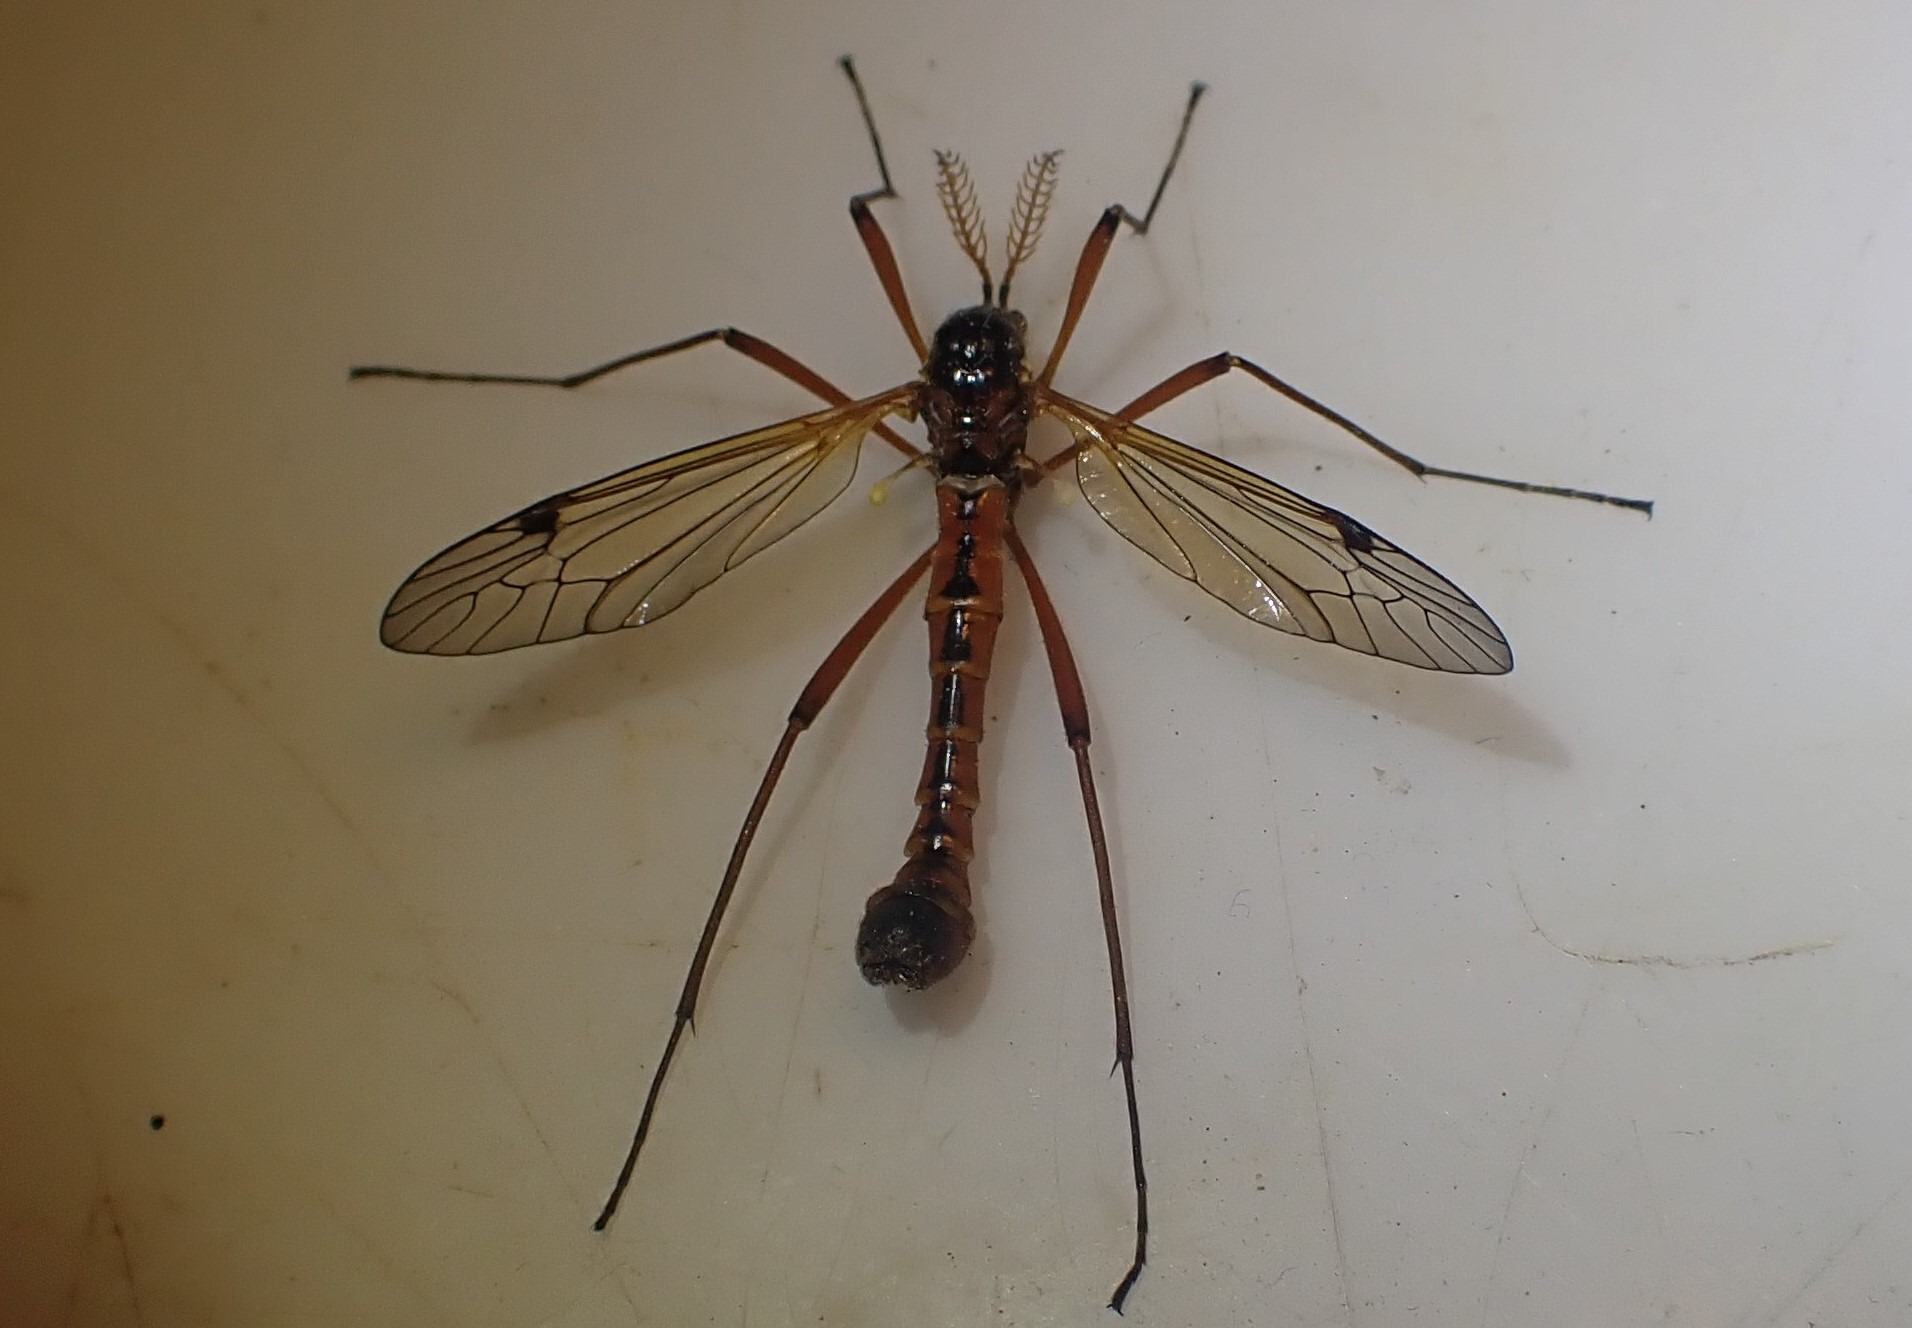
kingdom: Animalia
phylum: Arthropoda
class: Insecta
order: Diptera
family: Tipulidae
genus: Tanyptera
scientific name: Tanyptera atrata
